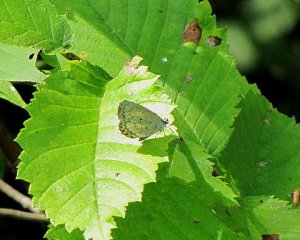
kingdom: Animalia
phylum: Arthropoda
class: Insecta
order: Lepidoptera
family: Lycaenidae
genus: Cyaniris
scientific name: Cyaniris neglecta
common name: Summer Azure
